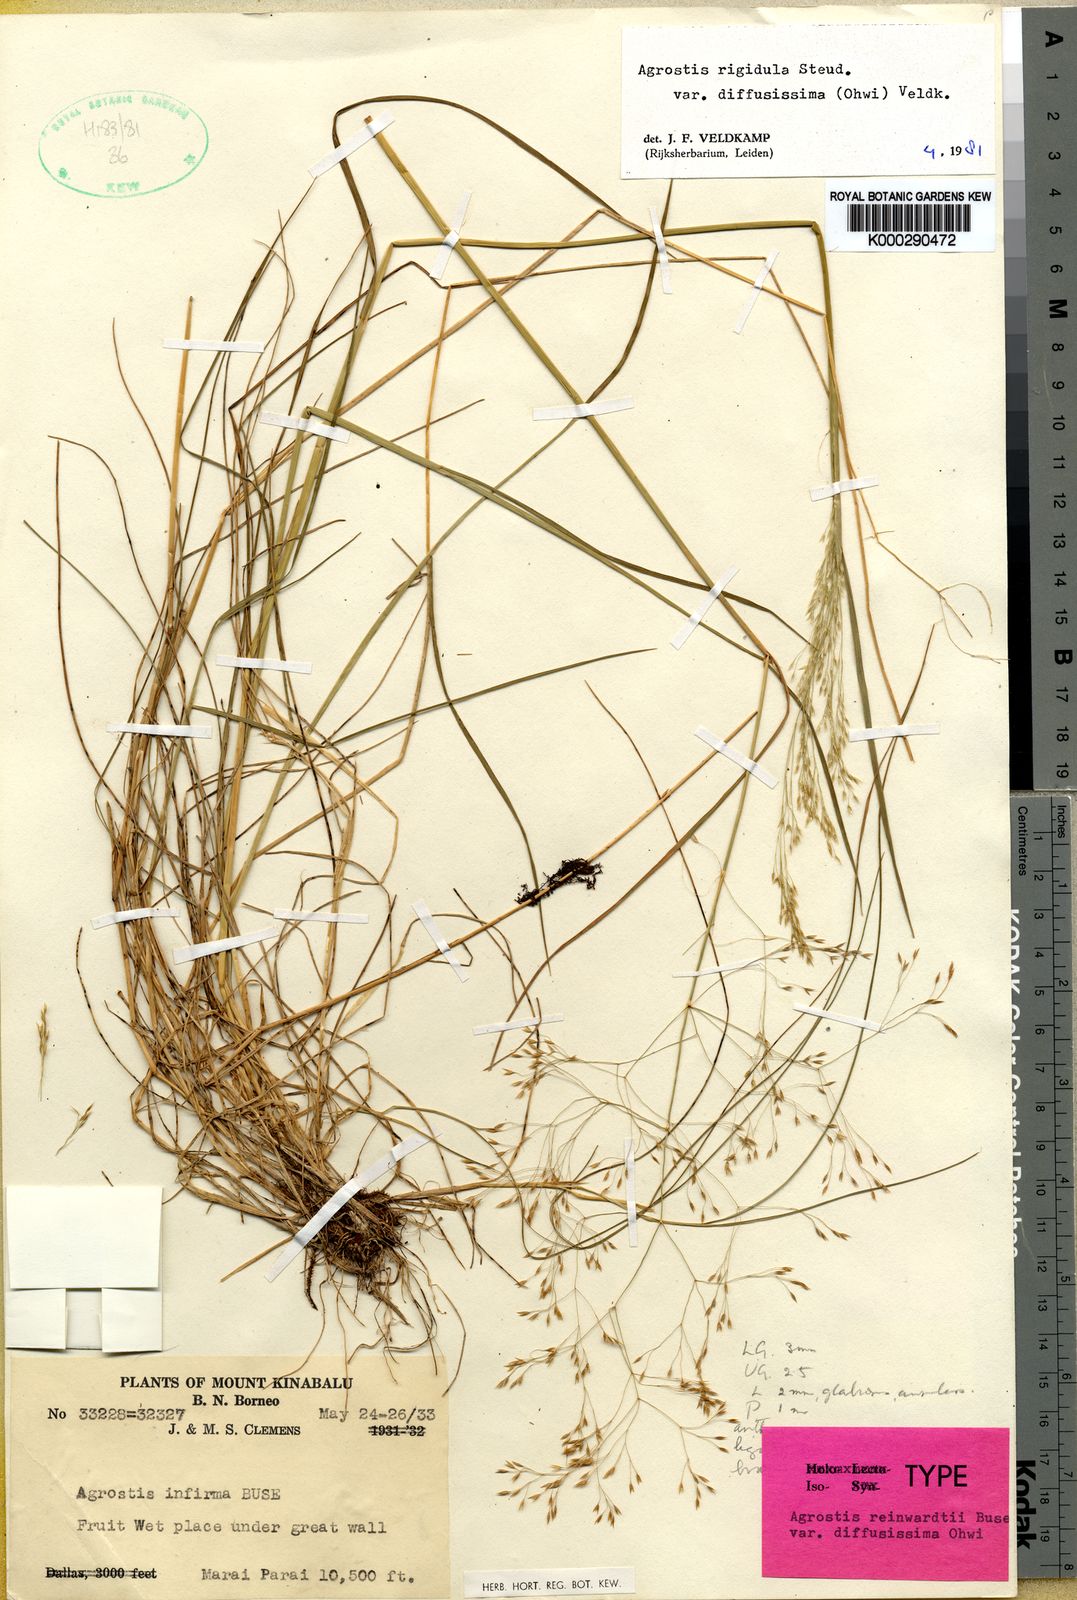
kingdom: Plantae
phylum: Tracheophyta
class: Liliopsida
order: Poales
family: Poaceae
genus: Agrostis
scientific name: Agrostis infirma
